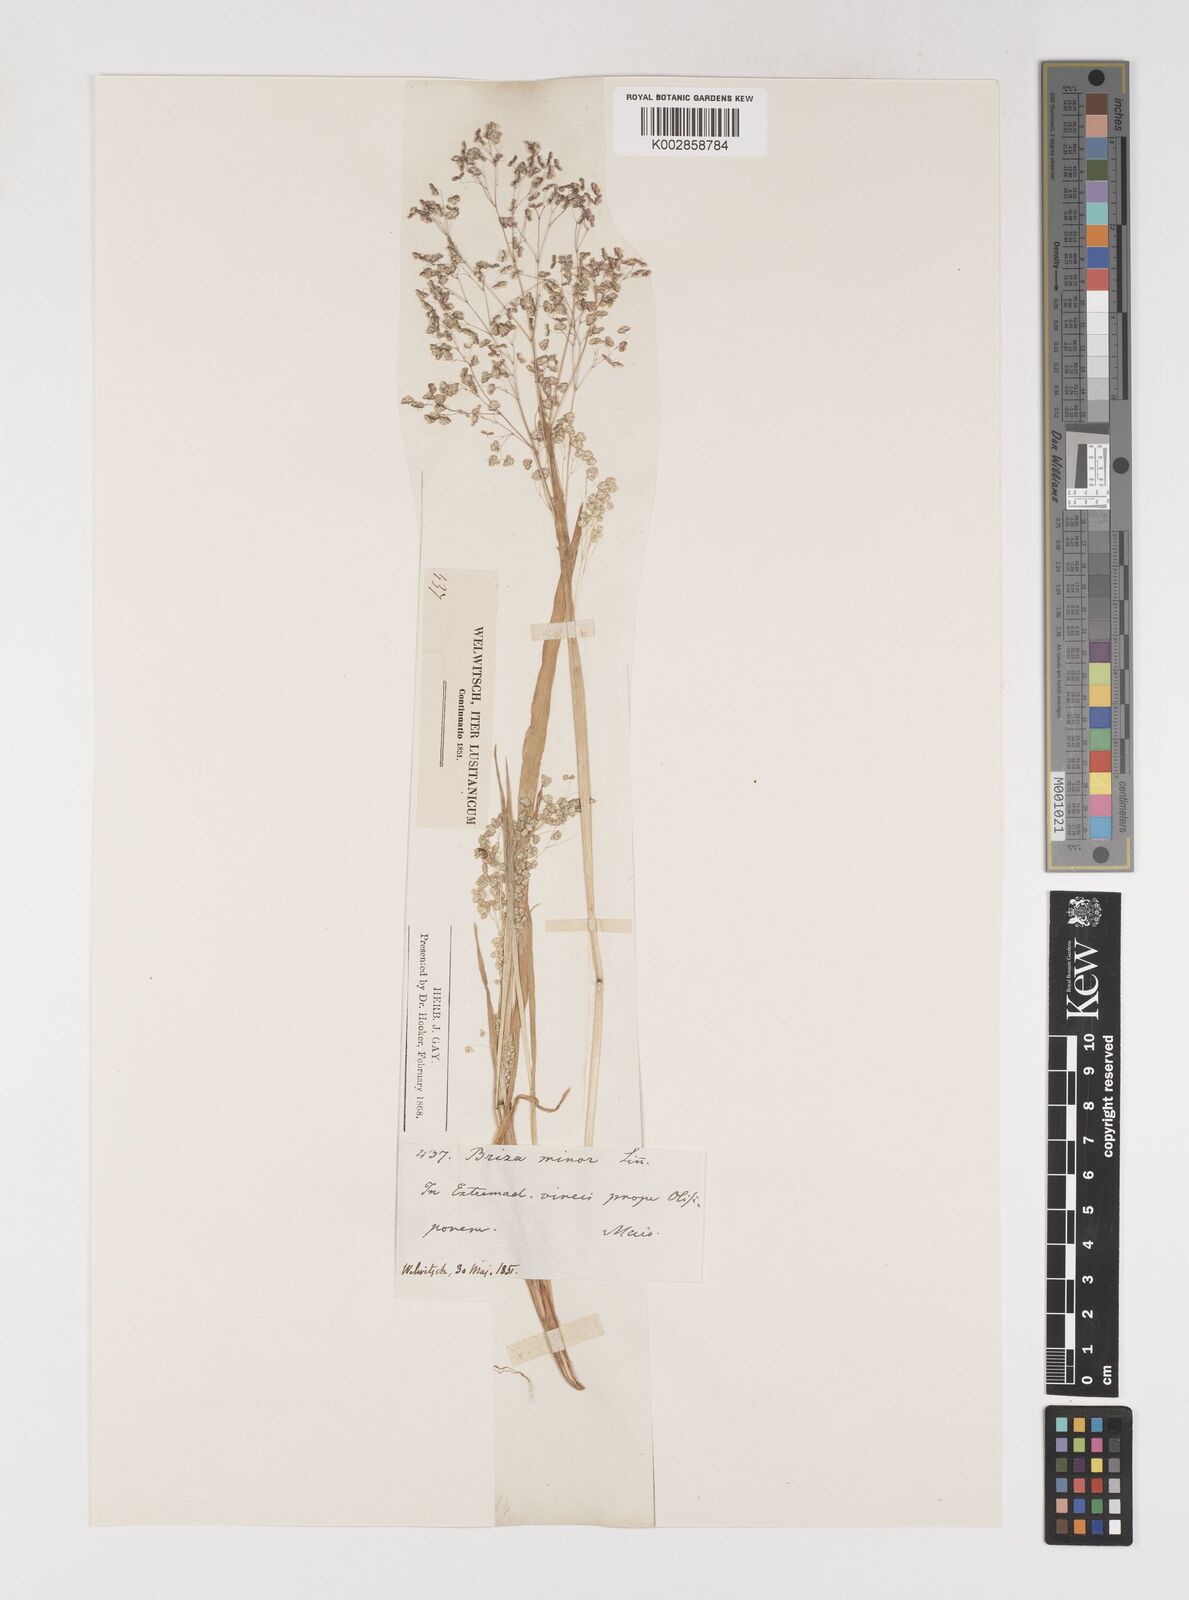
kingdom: Plantae
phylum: Tracheophyta
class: Liliopsida
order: Poales
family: Poaceae
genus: Briza
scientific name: Briza minor
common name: Lesser quaking-grass
